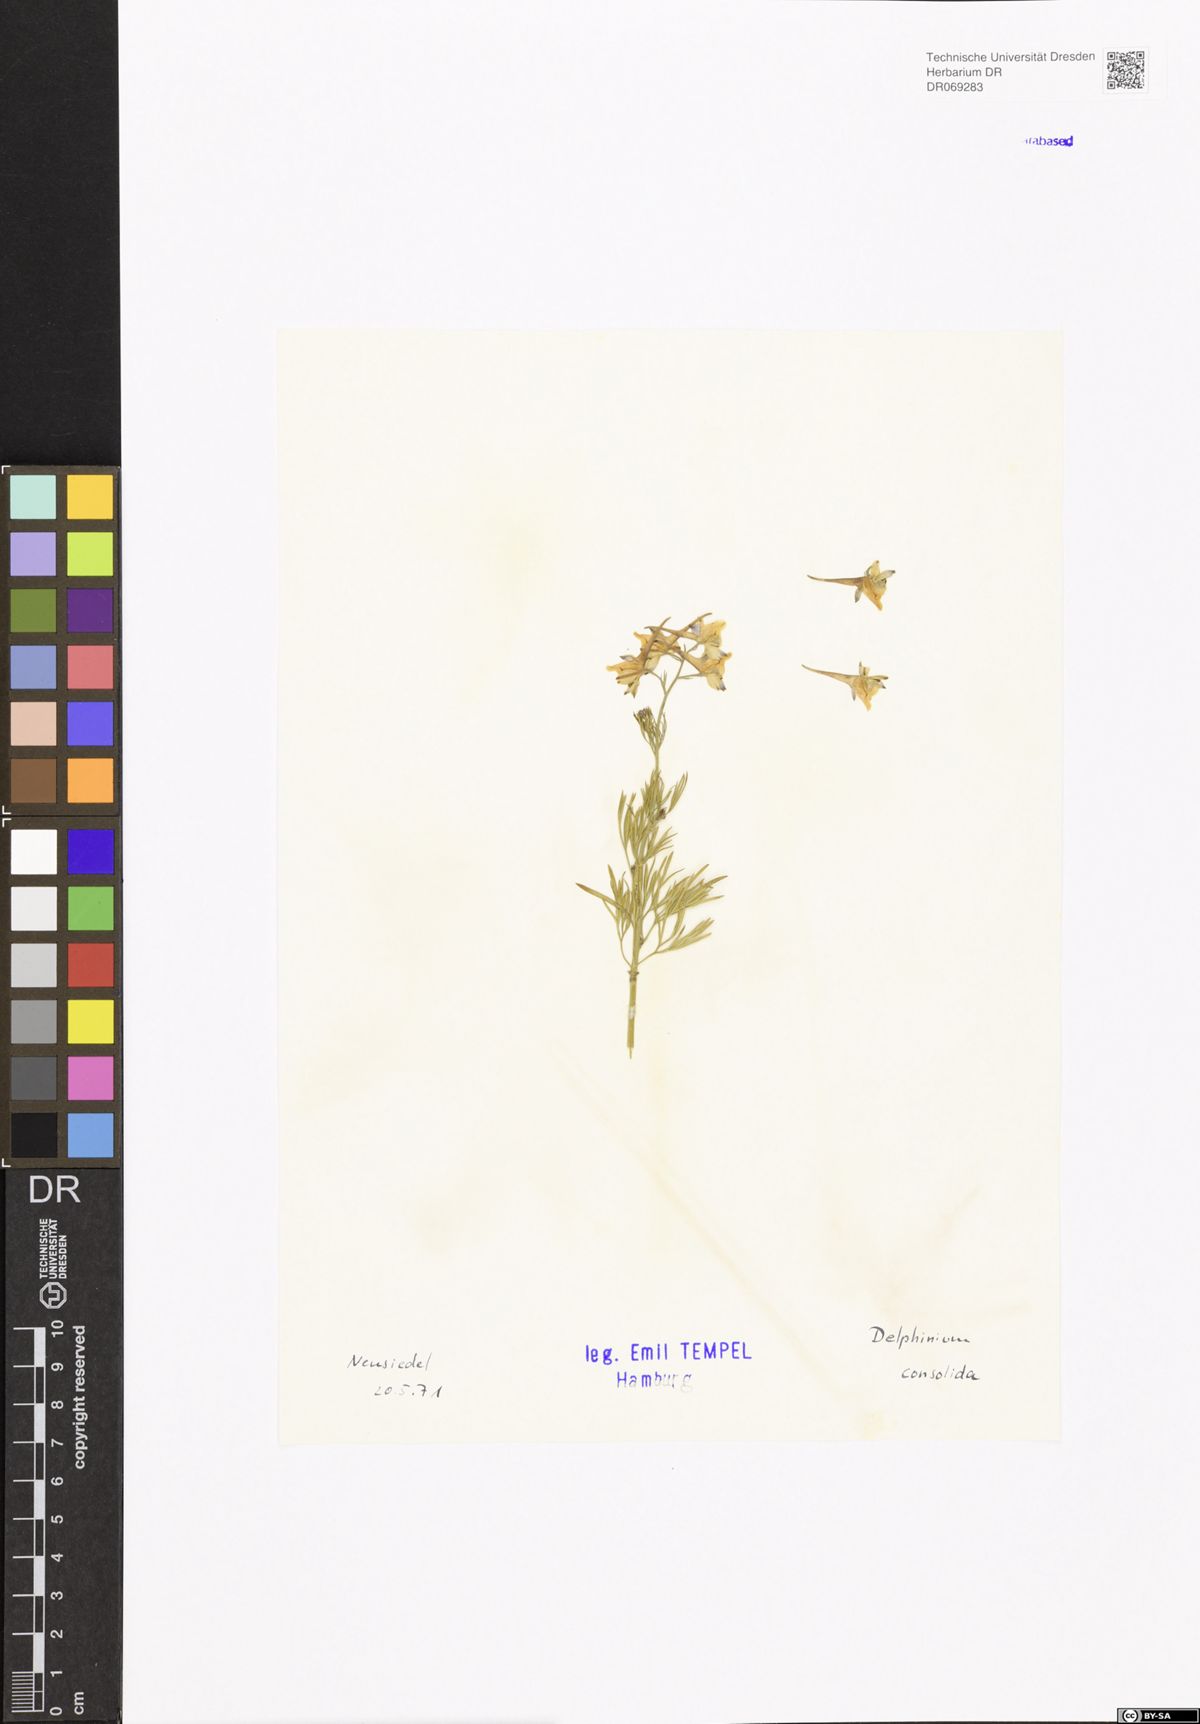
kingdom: Plantae
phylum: Tracheophyta
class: Magnoliopsida
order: Ranunculales
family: Ranunculaceae
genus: Delphinium
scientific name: Delphinium consolida
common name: Branching larkspur
